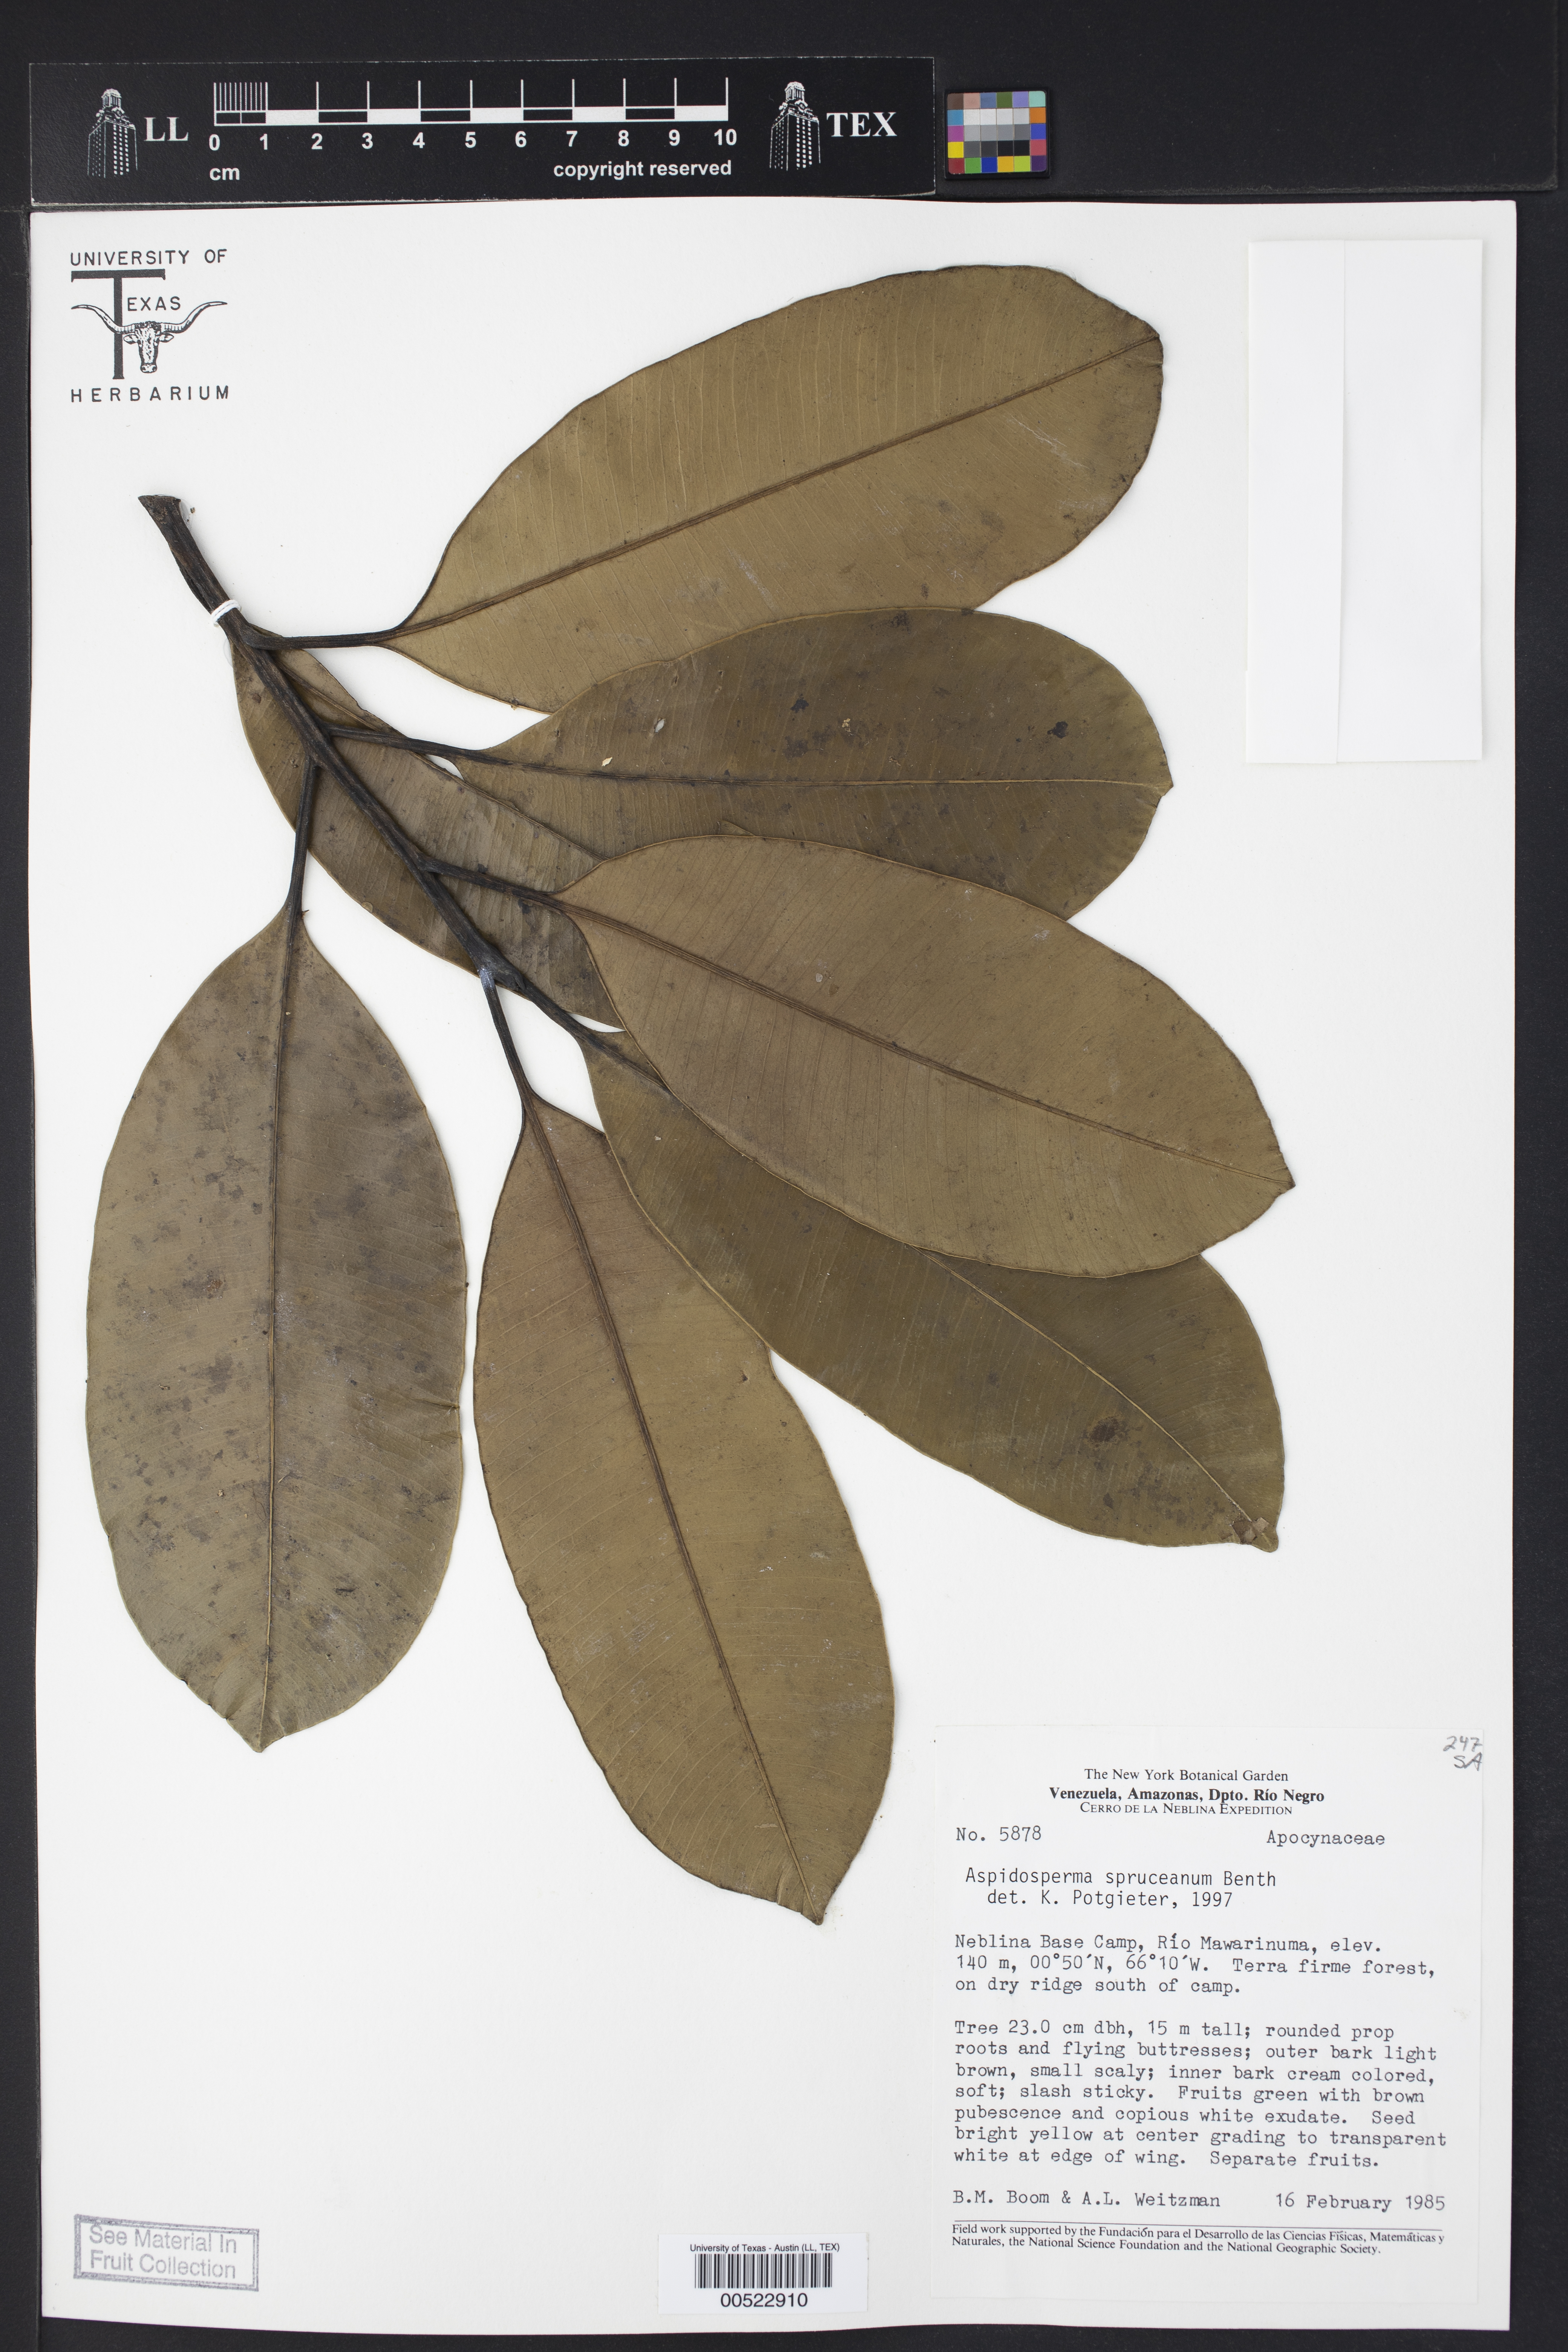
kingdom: Plantae
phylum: Tracheophyta
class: Magnoliopsida
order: Gentianales
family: Apocynaceae
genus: Aspidosperma
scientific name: Aspidosperma spruceanum
